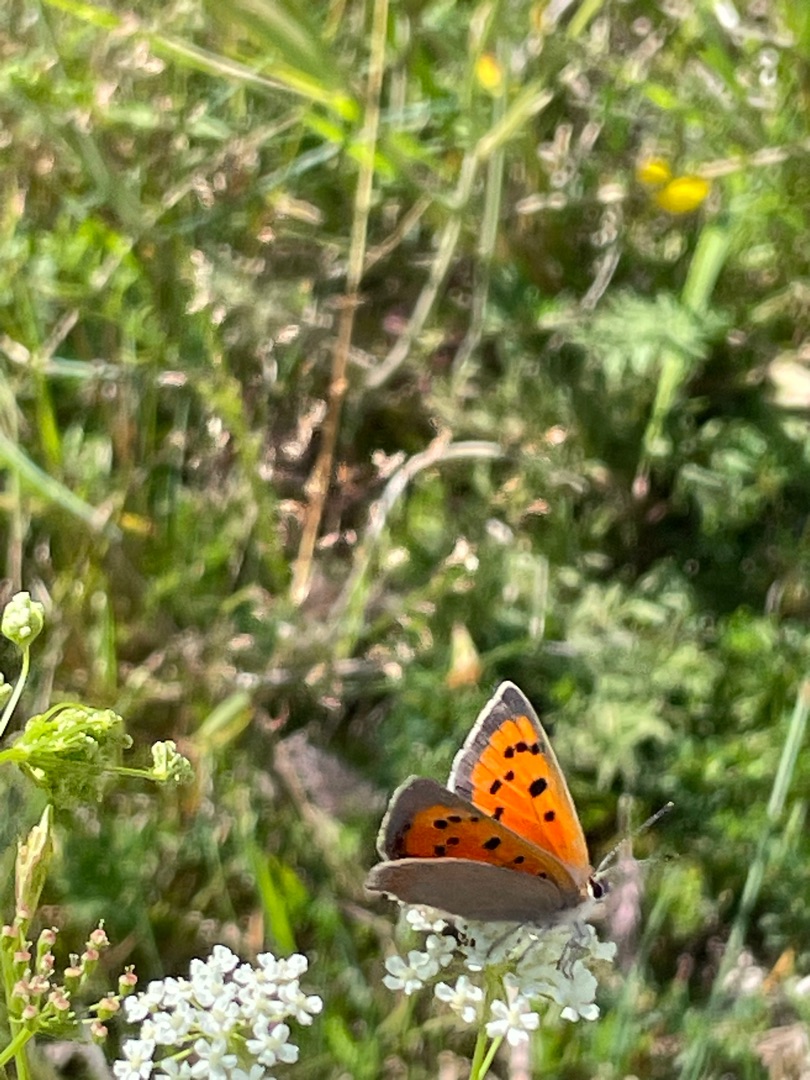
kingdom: Animalia
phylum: Arthropoda
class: Insecta
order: Lepidoptera
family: Lycaenidae
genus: Lycaena
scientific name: Lycaena phlaeas
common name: Lille ildfugl
